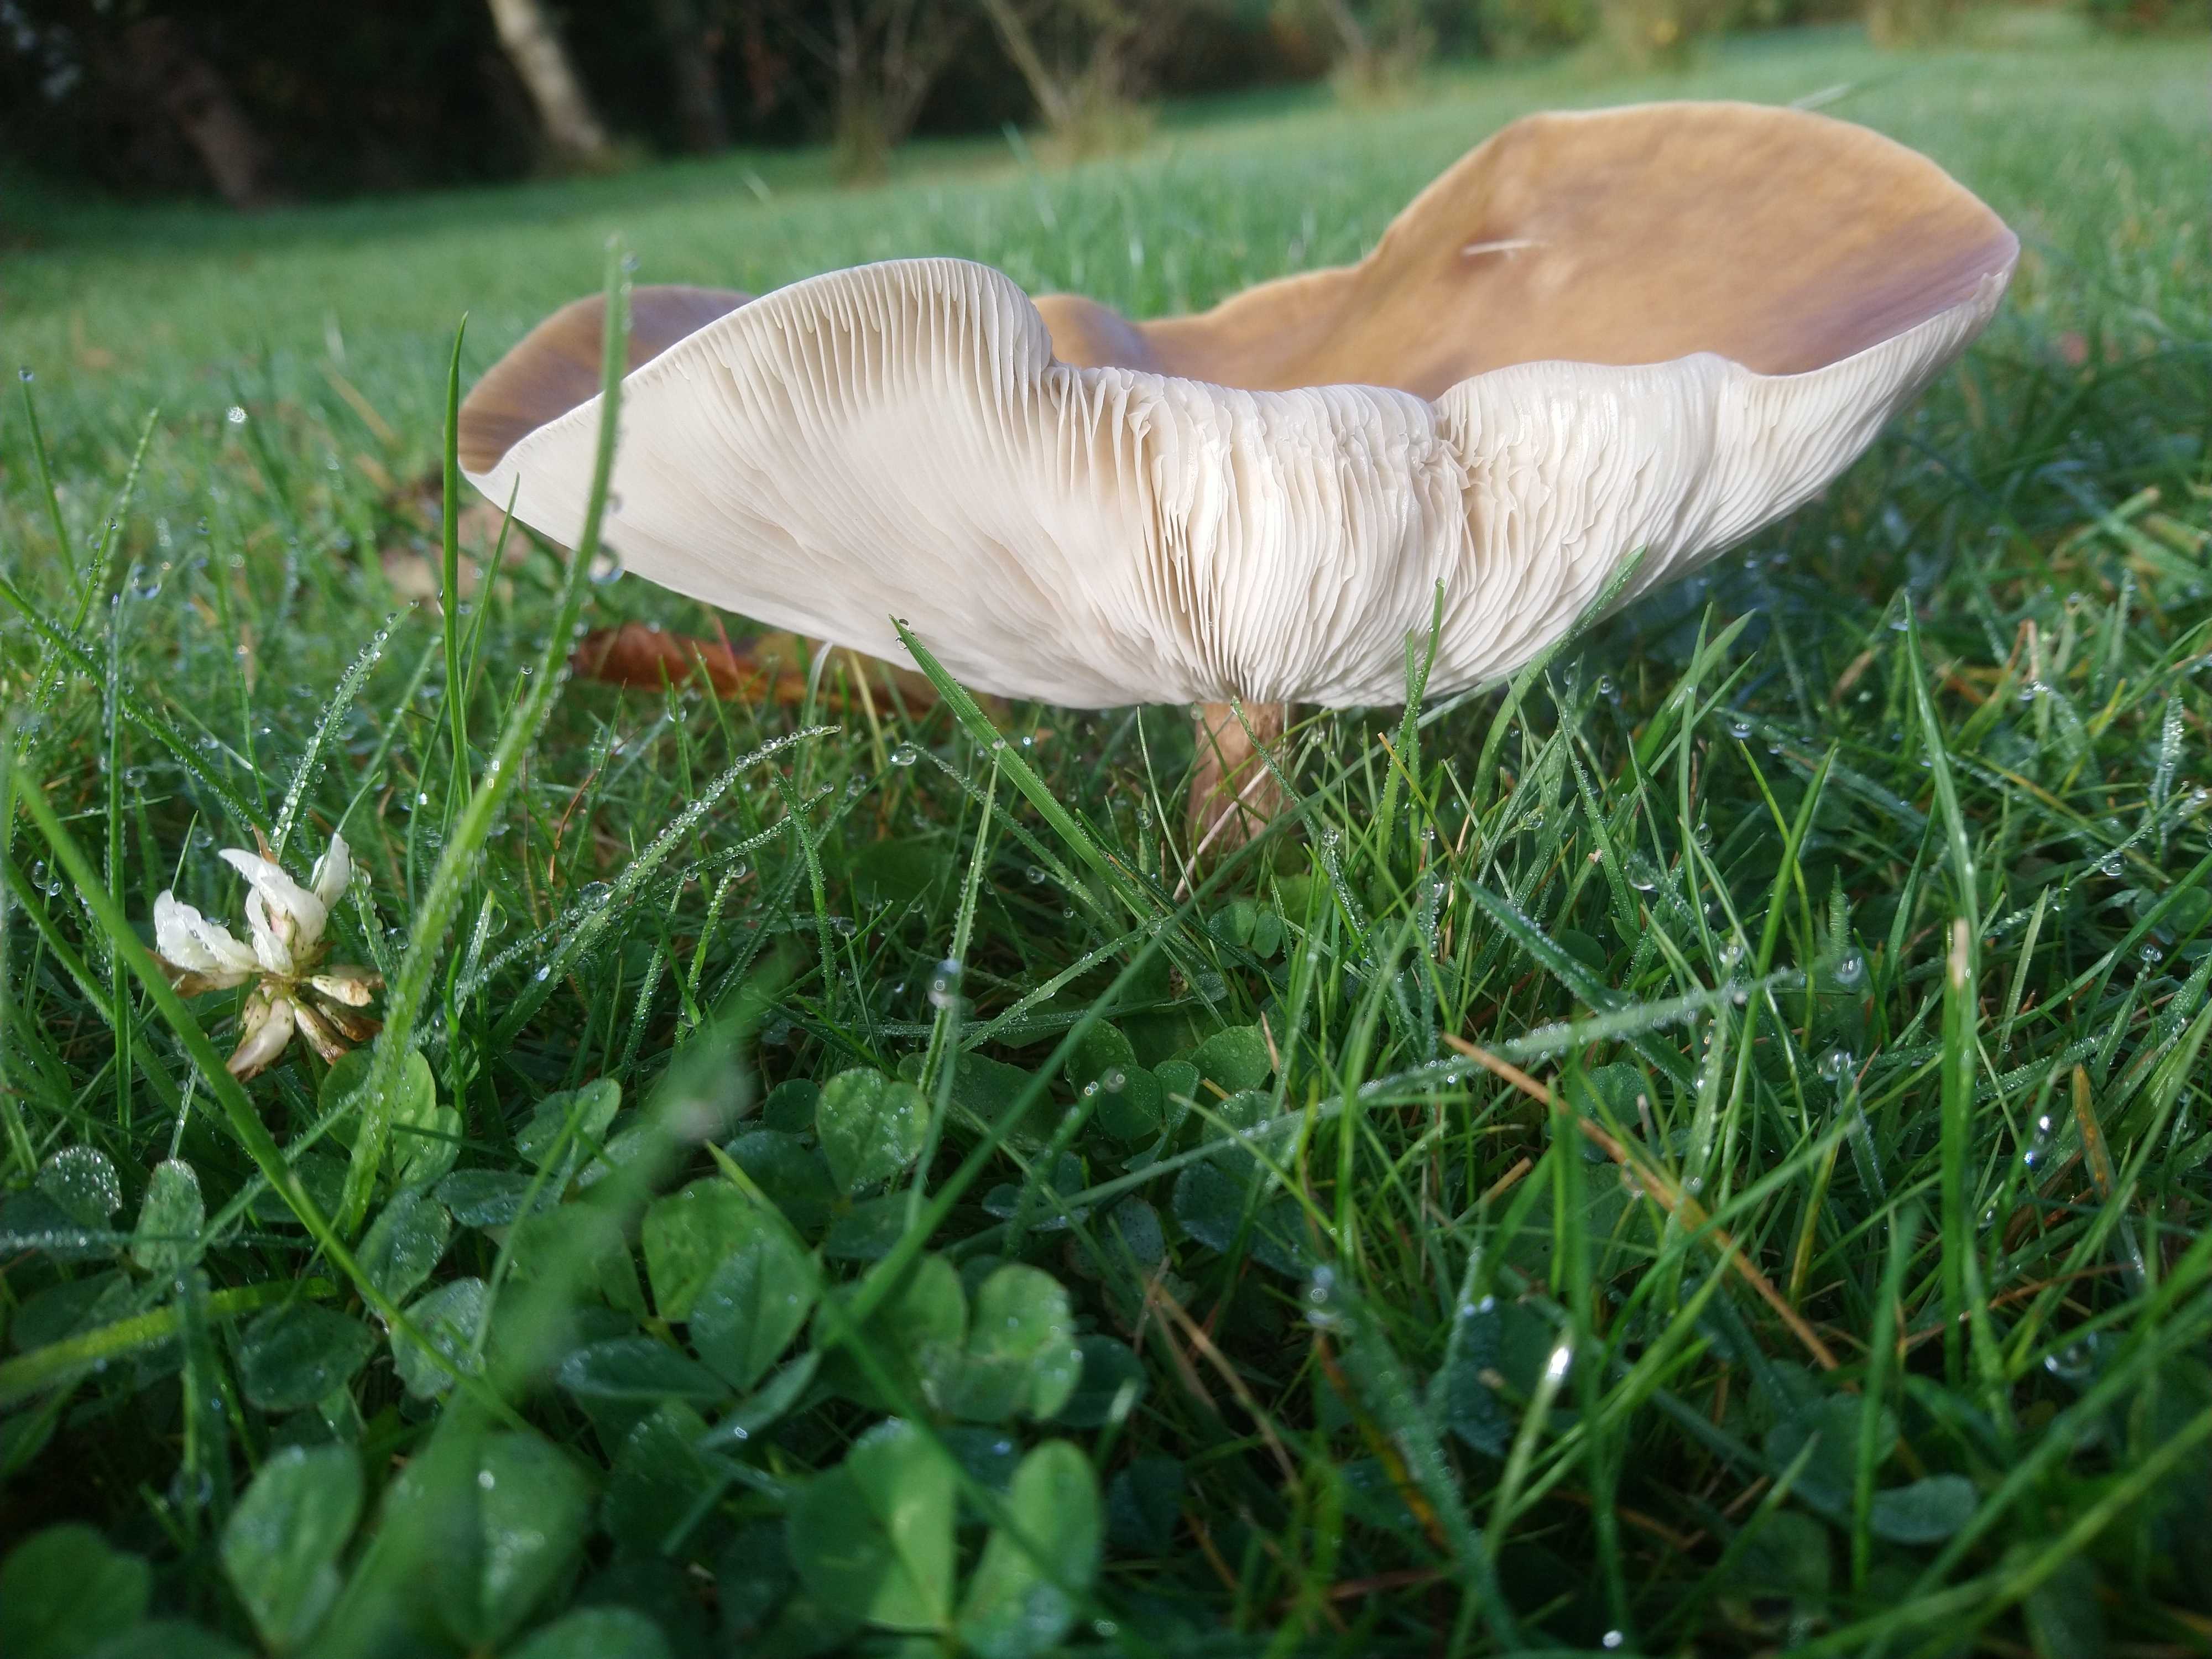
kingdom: Fungi
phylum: Basidiomycota
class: Agaricomycetes
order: Agaricales
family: Tricholomataceae
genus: Melanoleuca
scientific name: Melanoleuca
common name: munkehat
